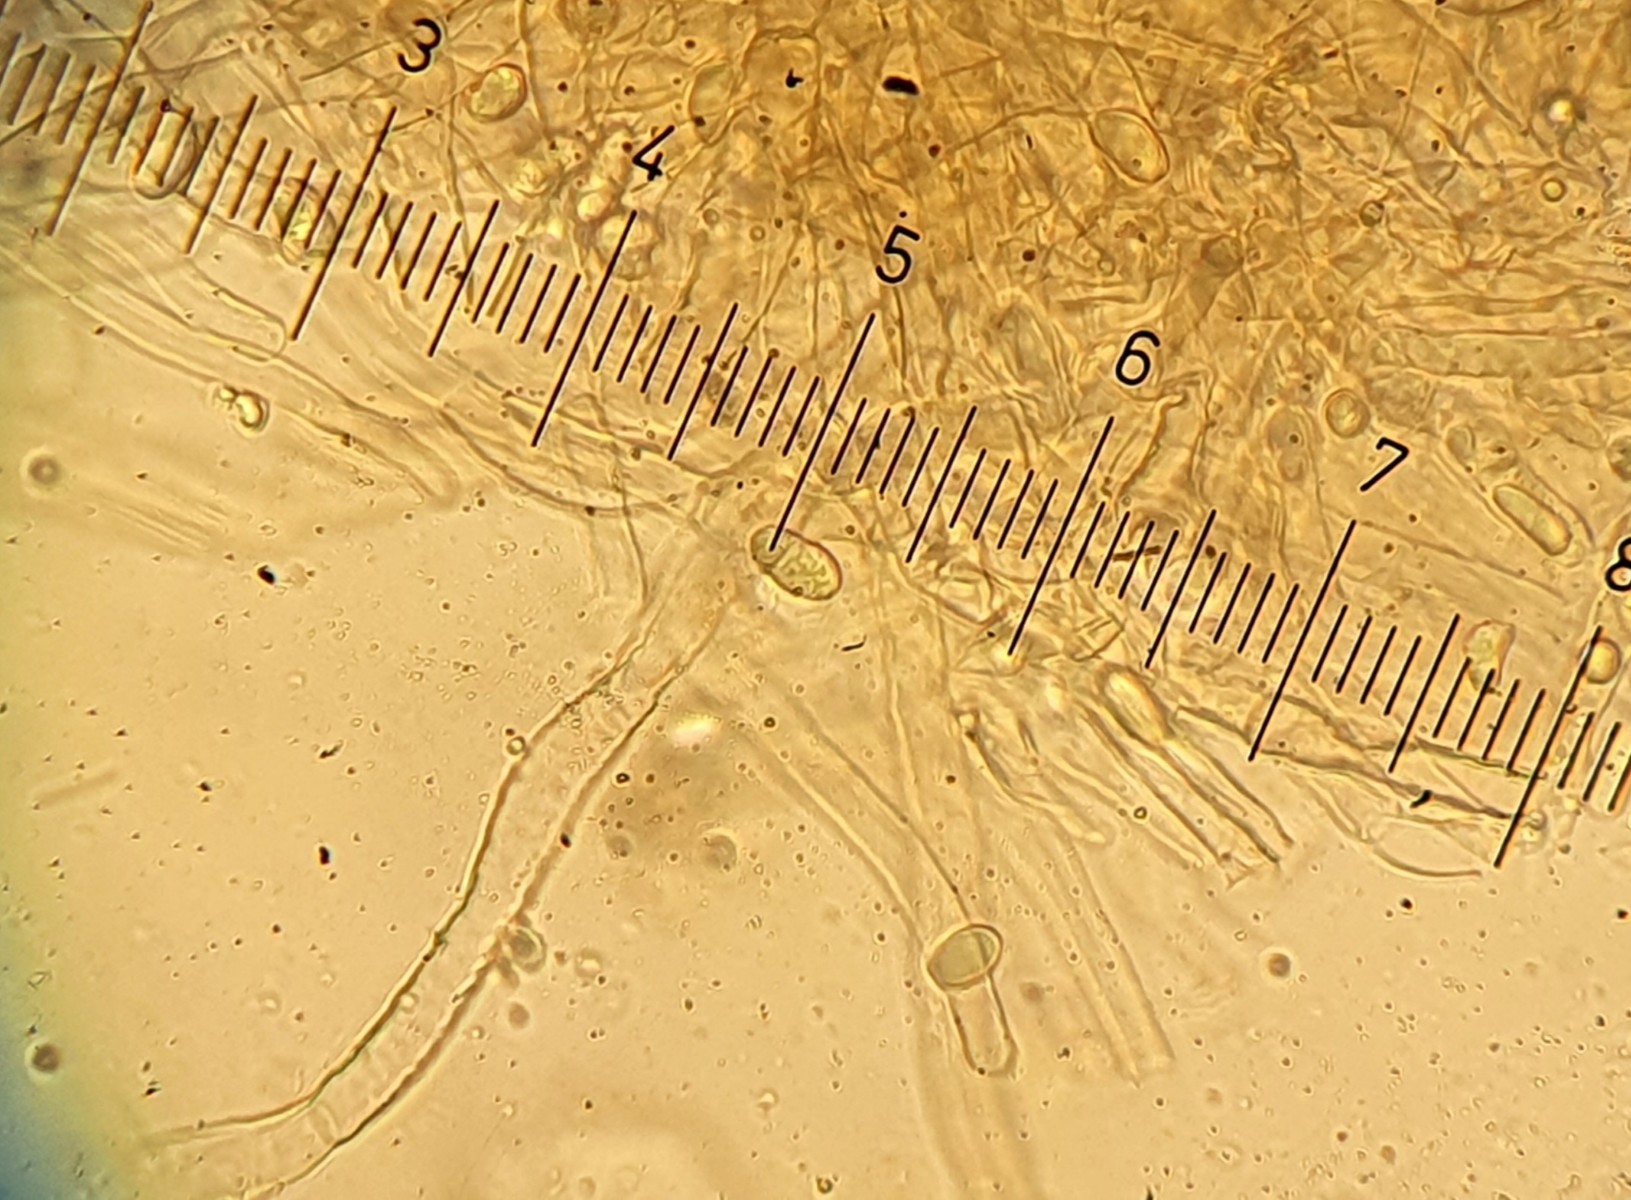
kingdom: Fungi
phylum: Basidiomycota
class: Agaricomycetes
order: Cantharellales
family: Hydnaceae
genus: Cantharellus
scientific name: Cantharellus cinereus
